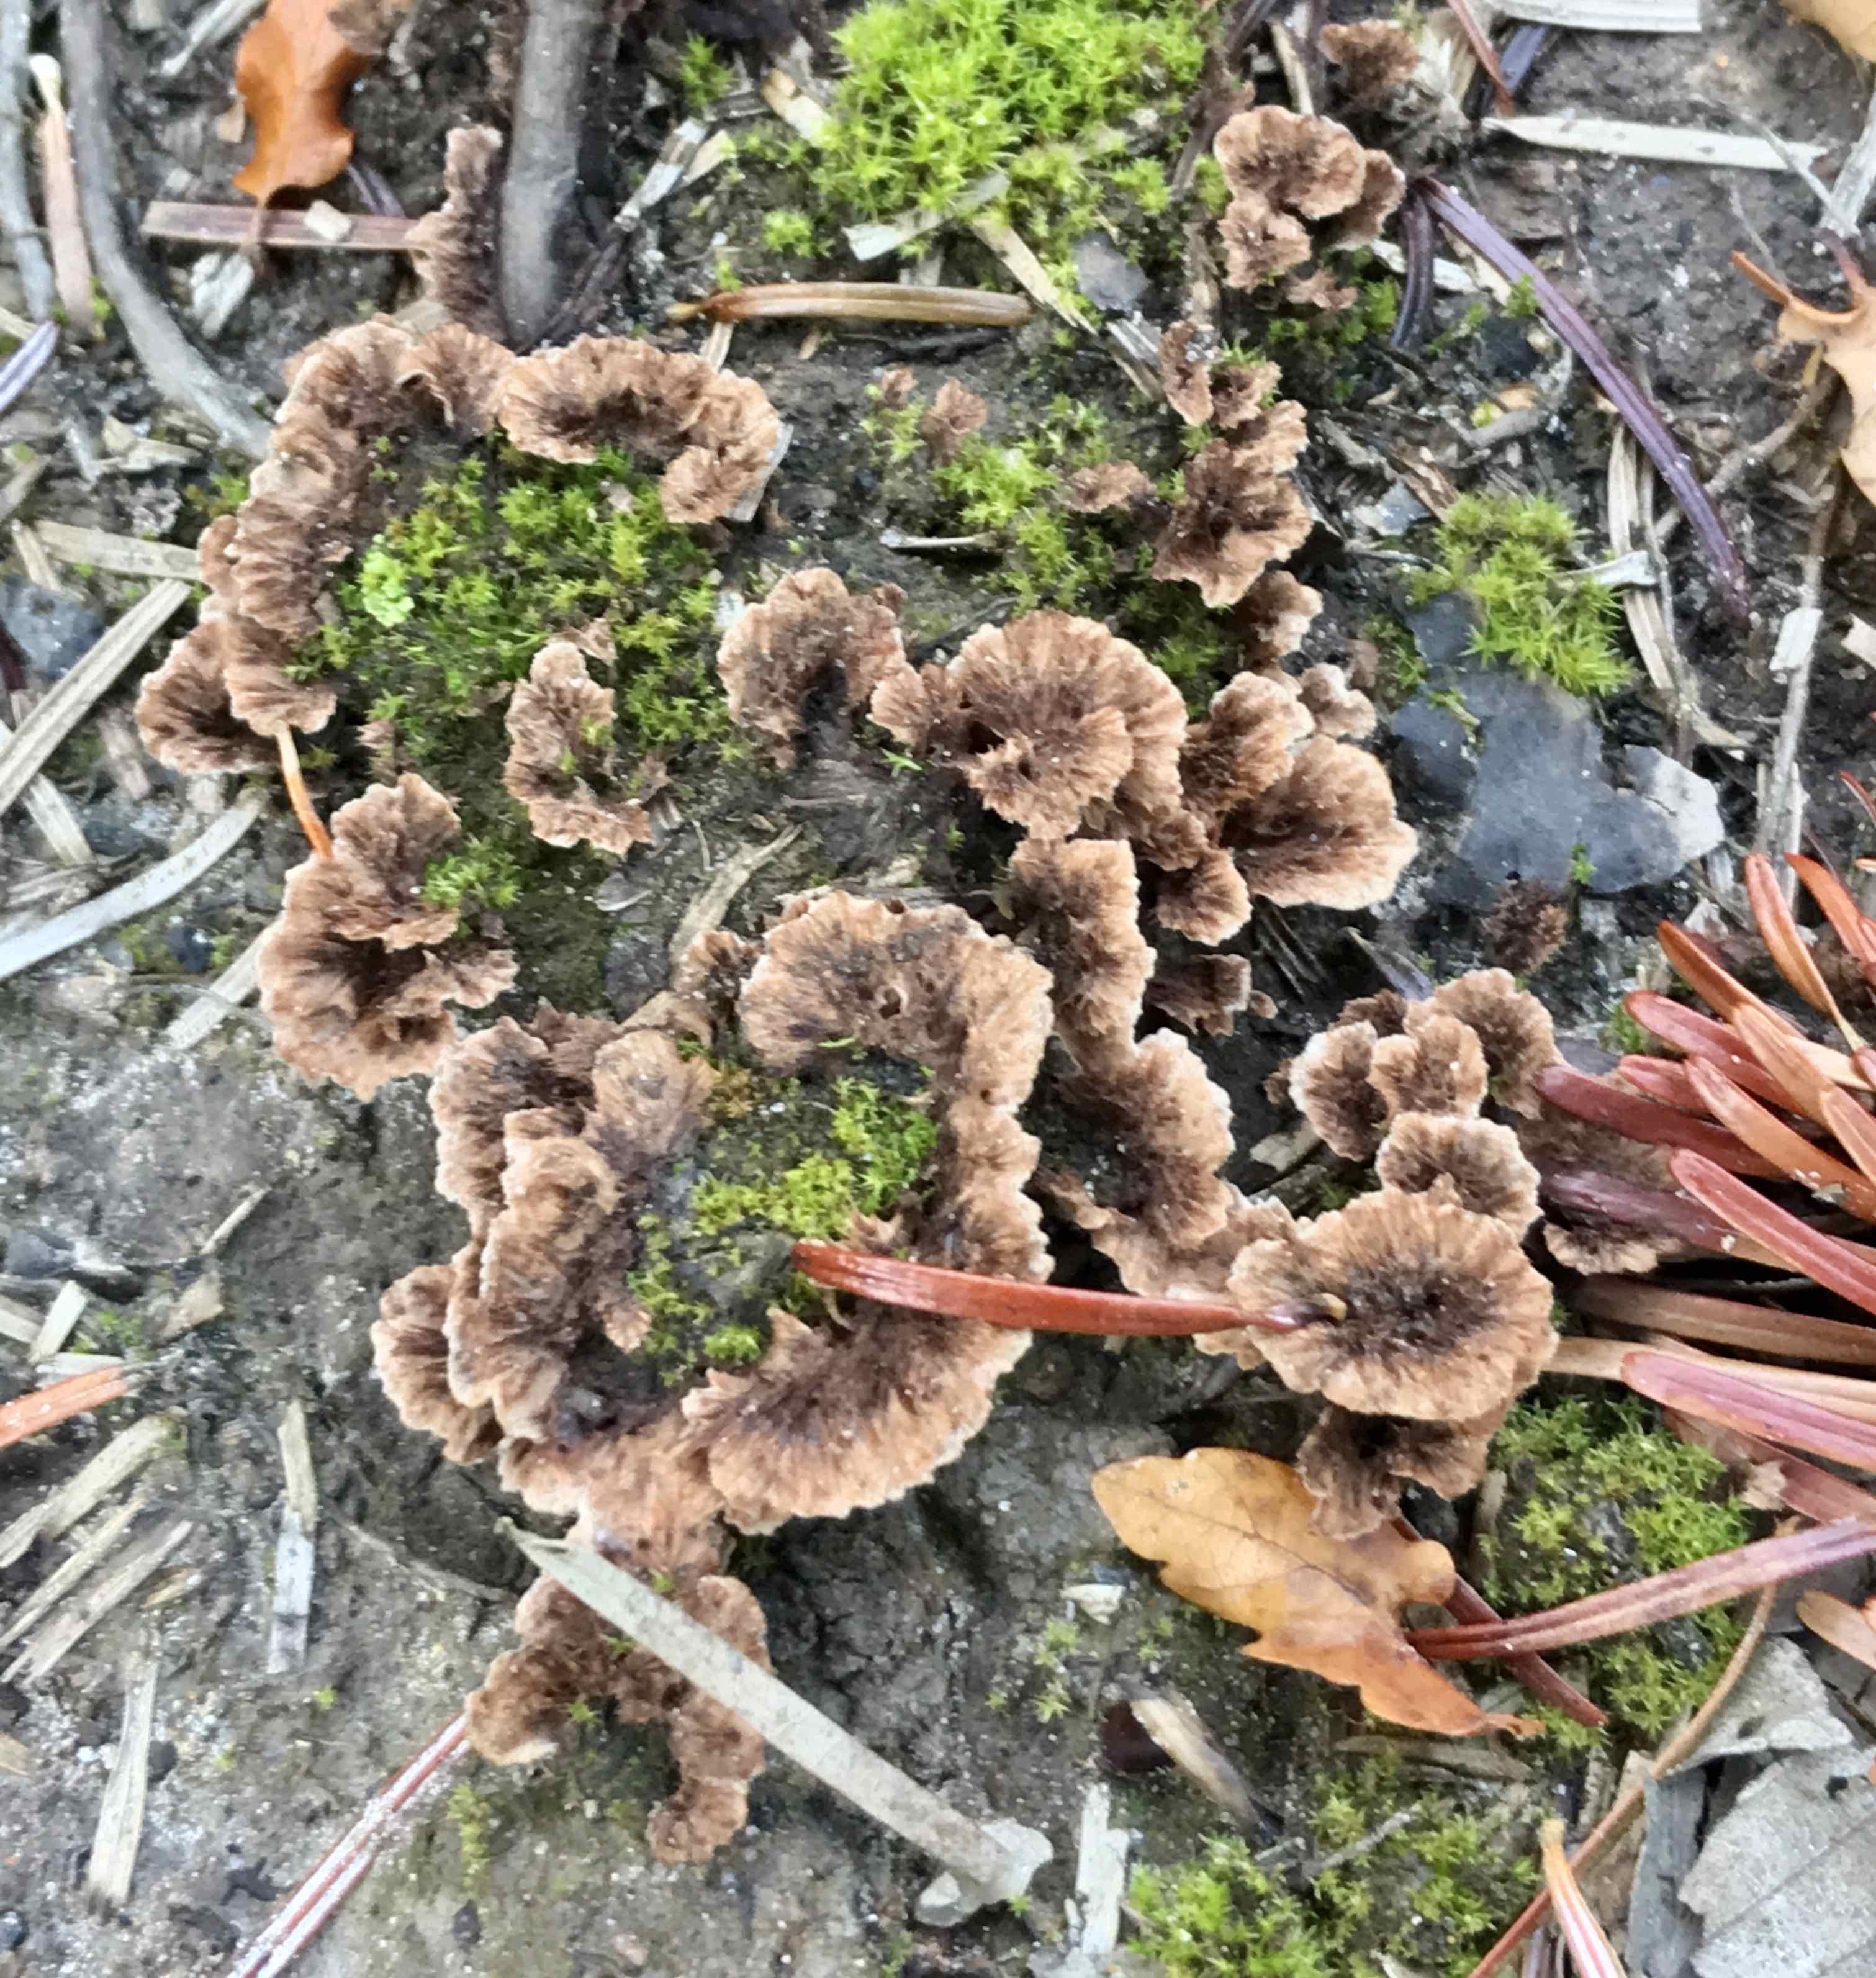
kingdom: Fungi
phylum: Basidiomycota
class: Agaricomycetes
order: Thelephorales
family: Thelephoraceae
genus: Thelephora
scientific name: Thelephora terrestris
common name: fliget frynsesvamp
